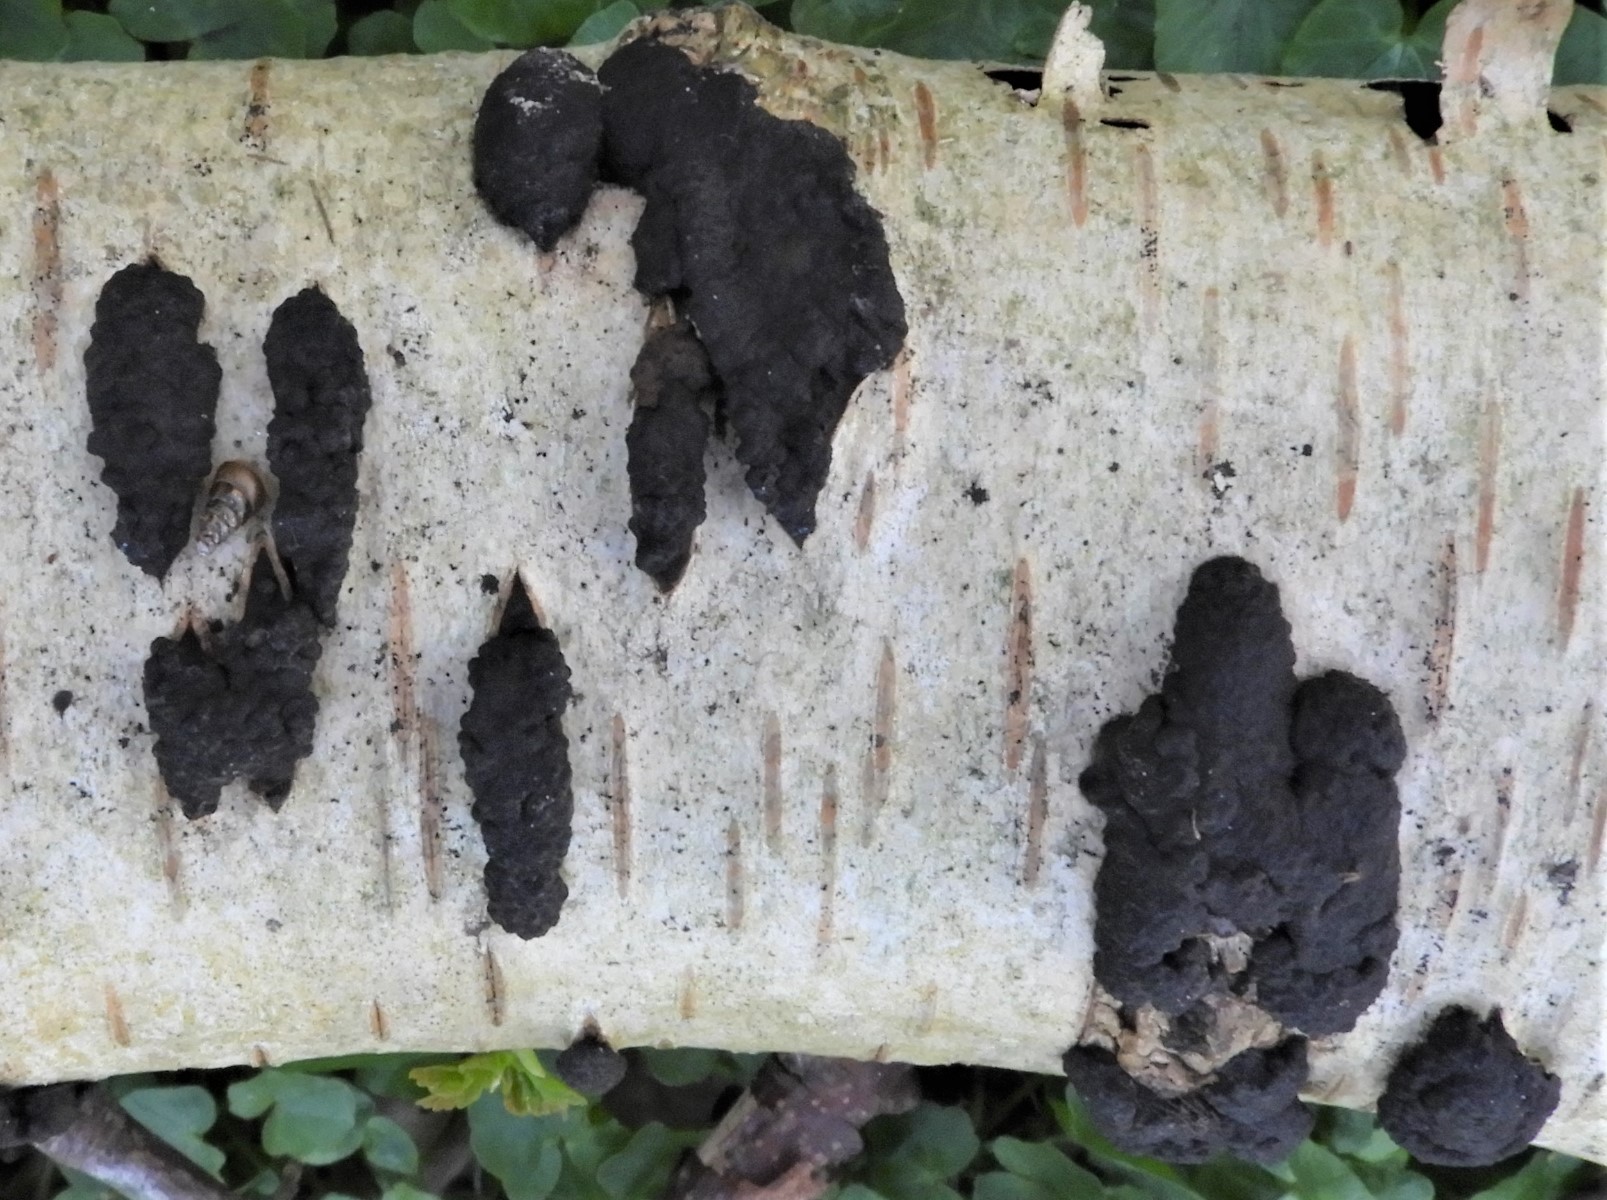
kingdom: Fungi
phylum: Ascomycota
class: Sordariomycetes
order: Xylariales
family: Hypoxylaceae
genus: Jackrogersella
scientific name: Jackrogersella multiformis
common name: foranderlig kulbær
